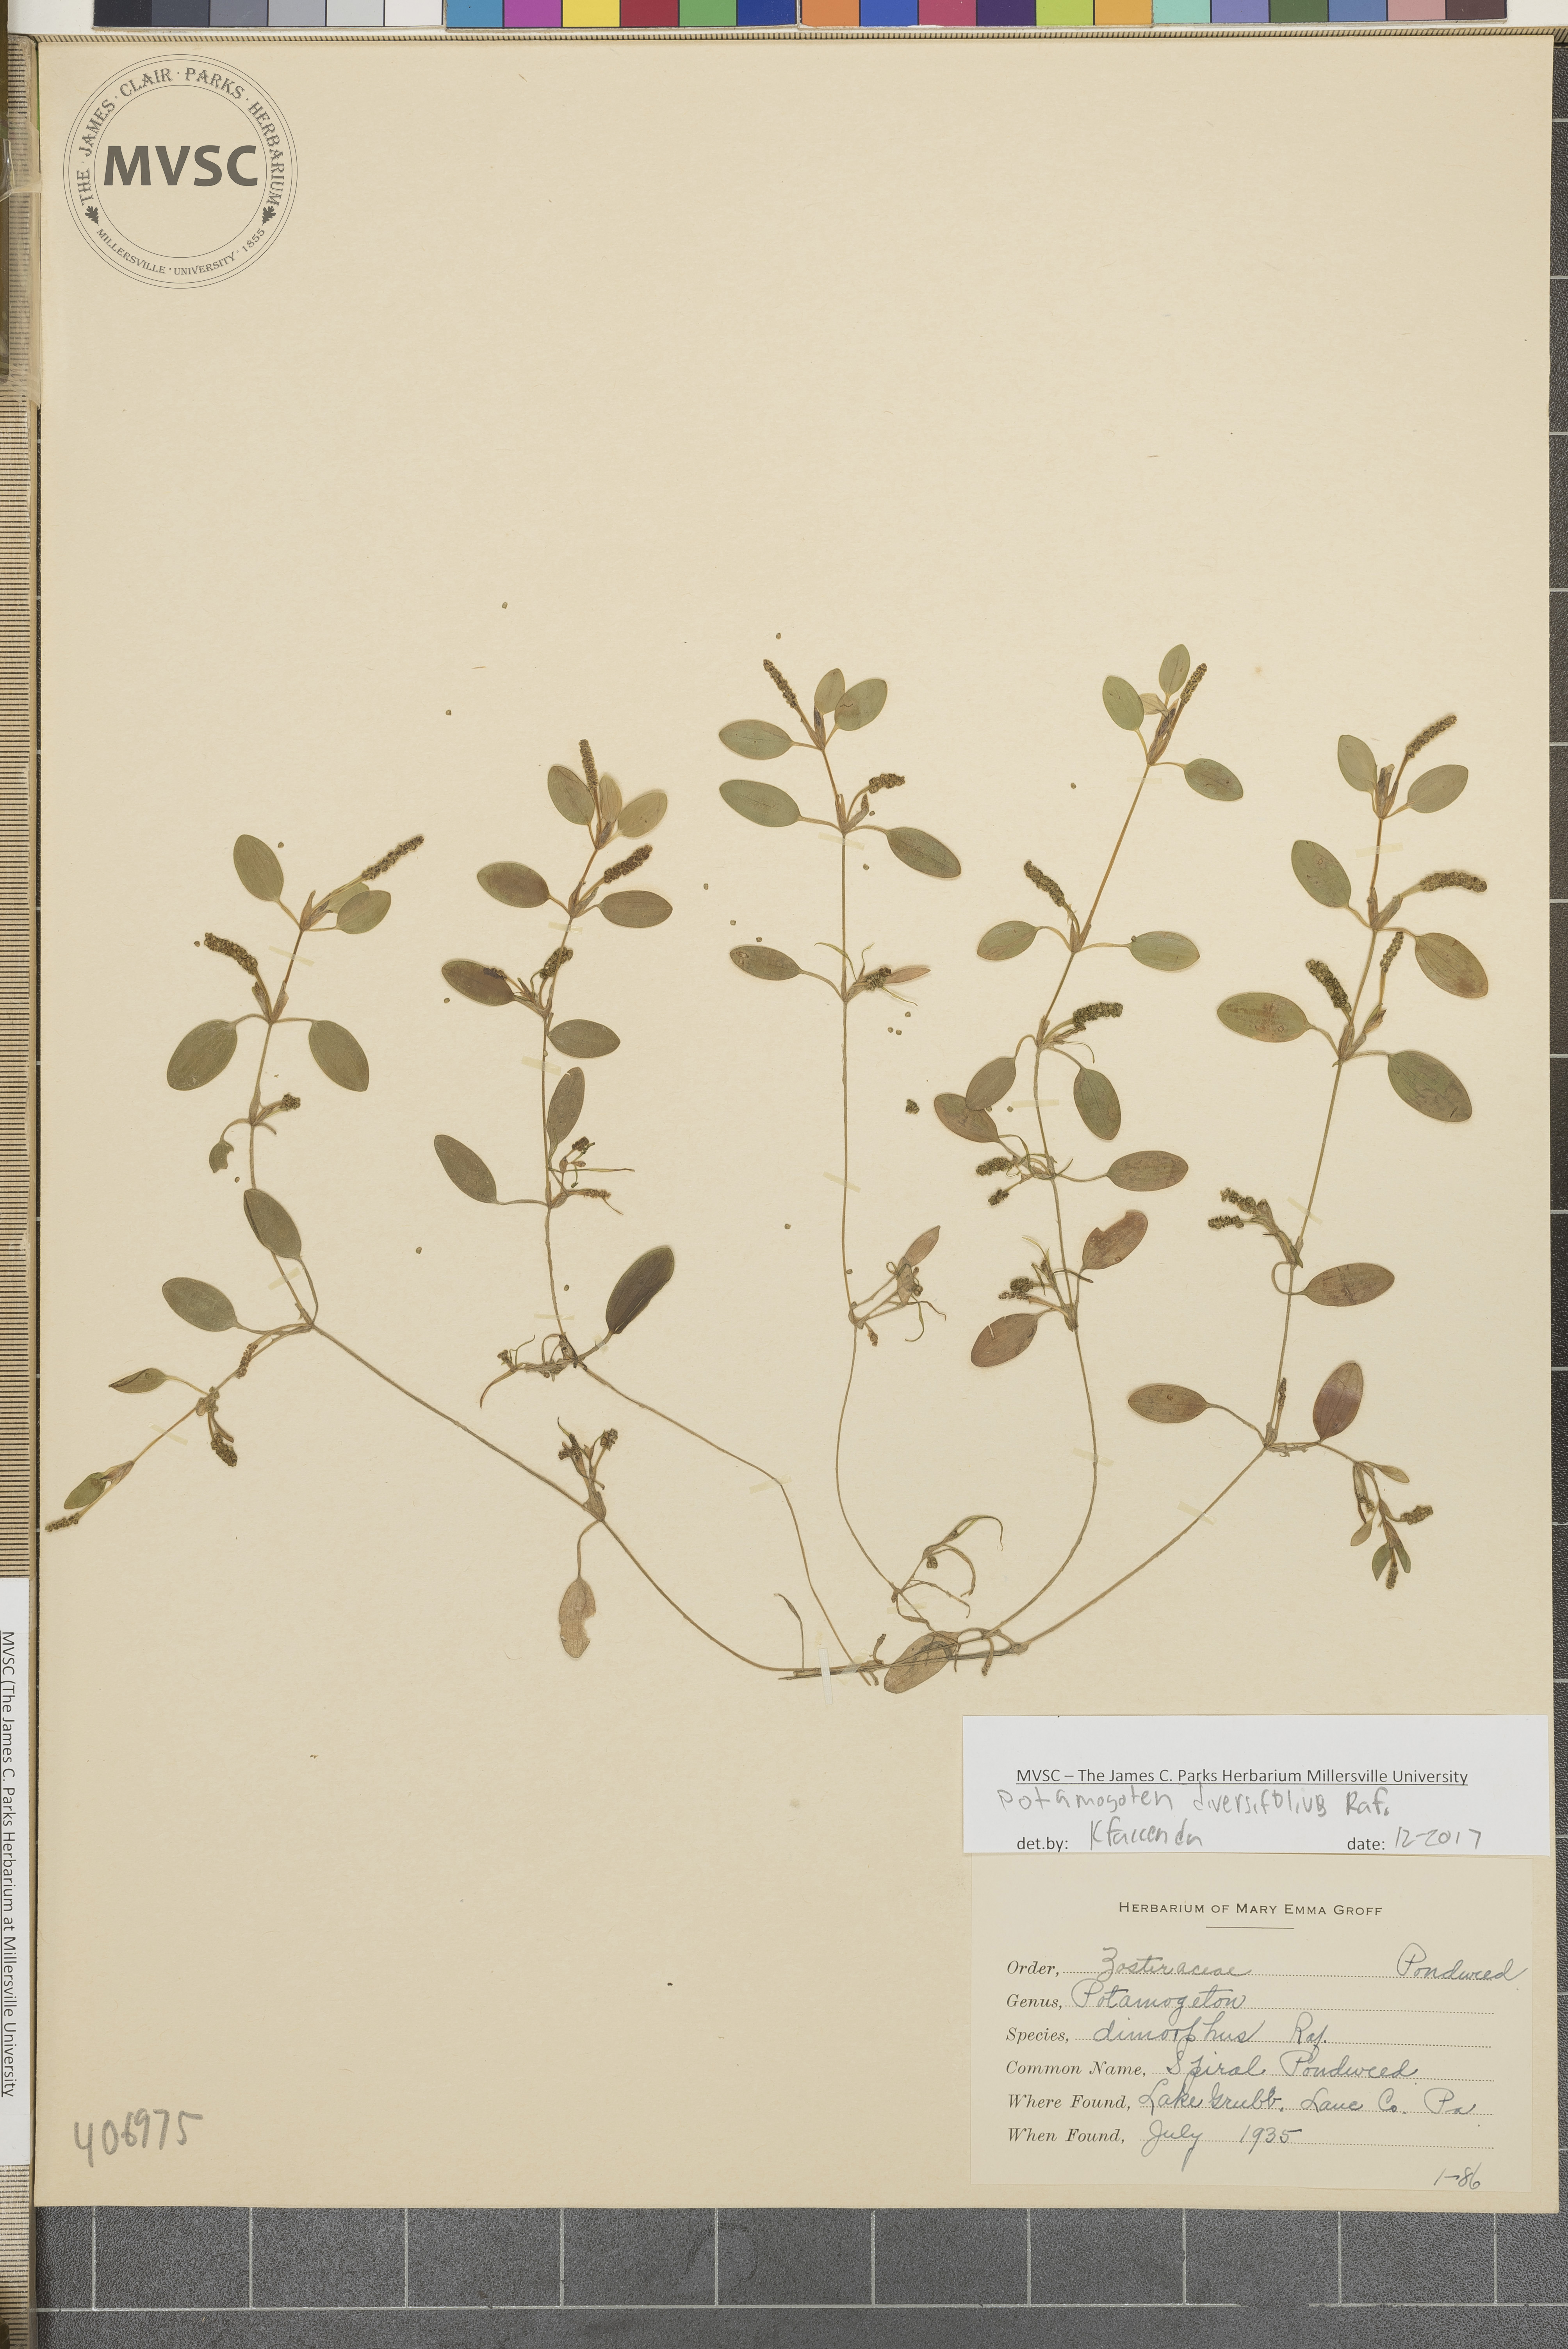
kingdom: Plantae
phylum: Tracheophyta
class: Liliopsida
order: Alismatales
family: Potamogetonaceae
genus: Potamogeton
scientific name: Potamogeton diversifolius
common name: Water-thread pondweed
